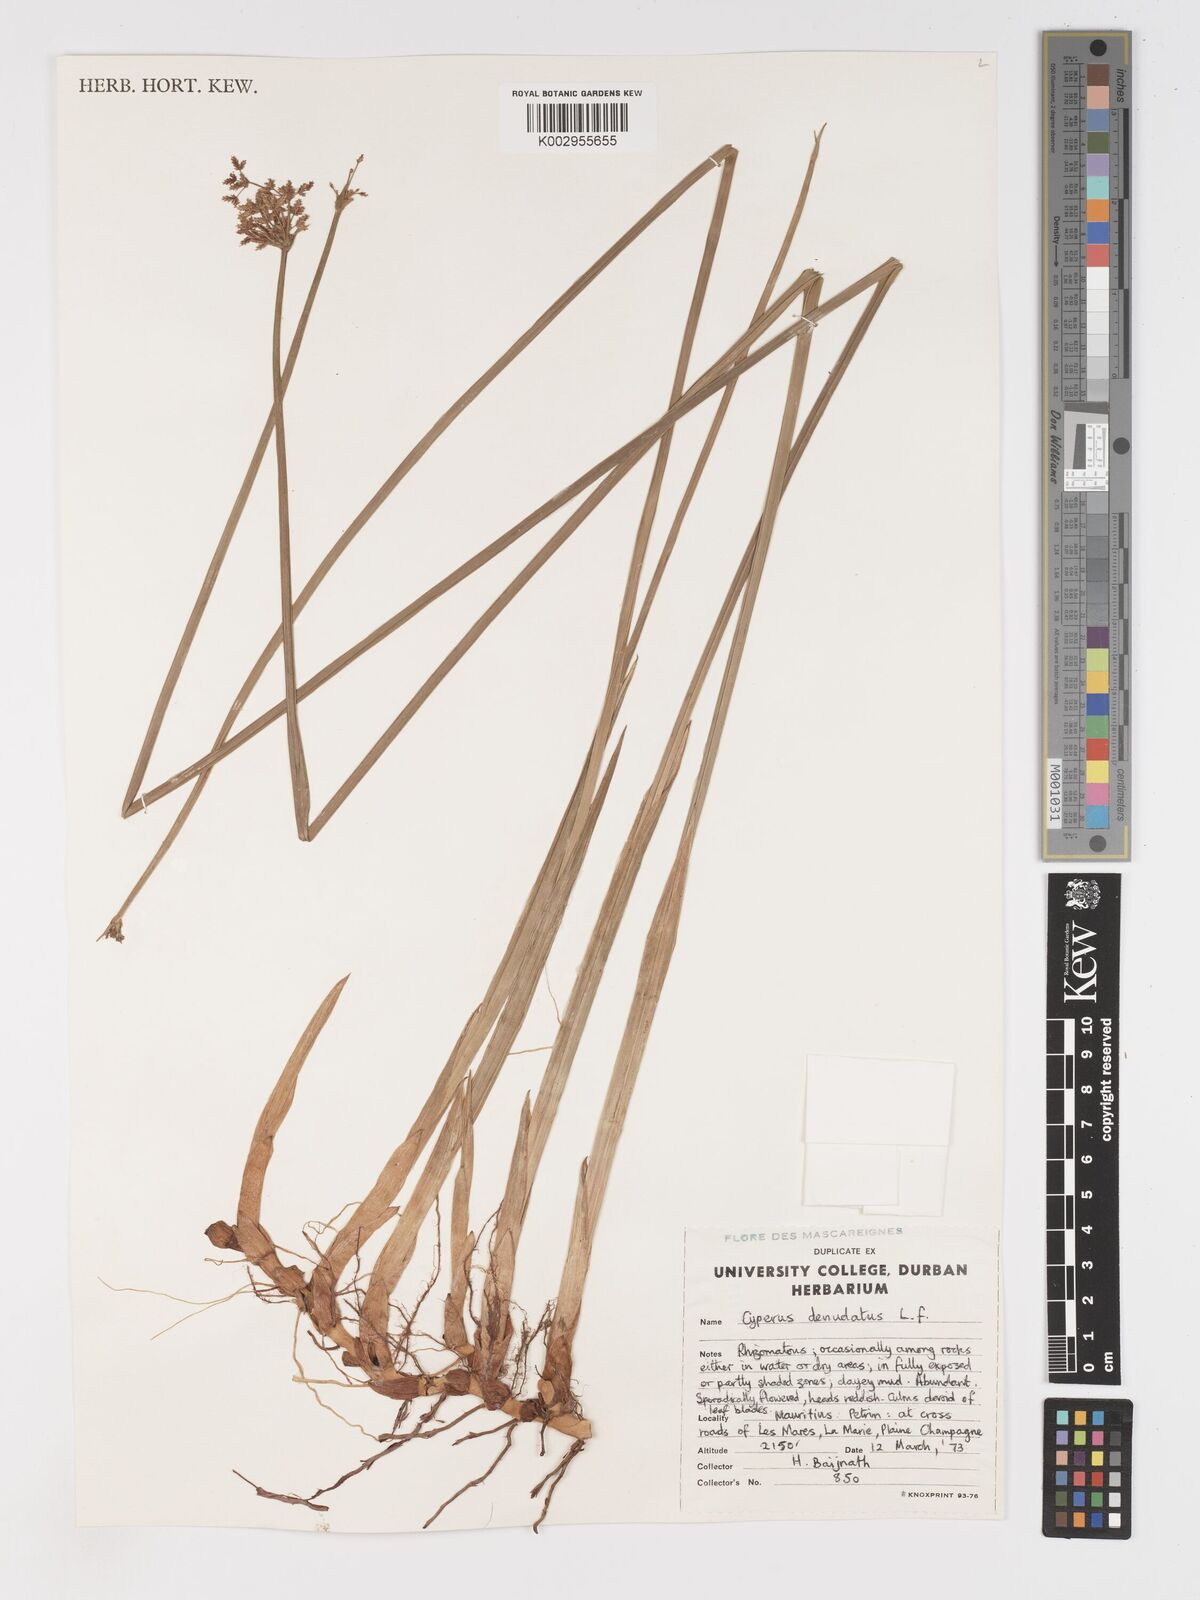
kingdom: Plantae
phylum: Tracheophyta
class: Liliopsida
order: Poales
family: Cyperaceae
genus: Cyperus
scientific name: Cyperus denudatus
